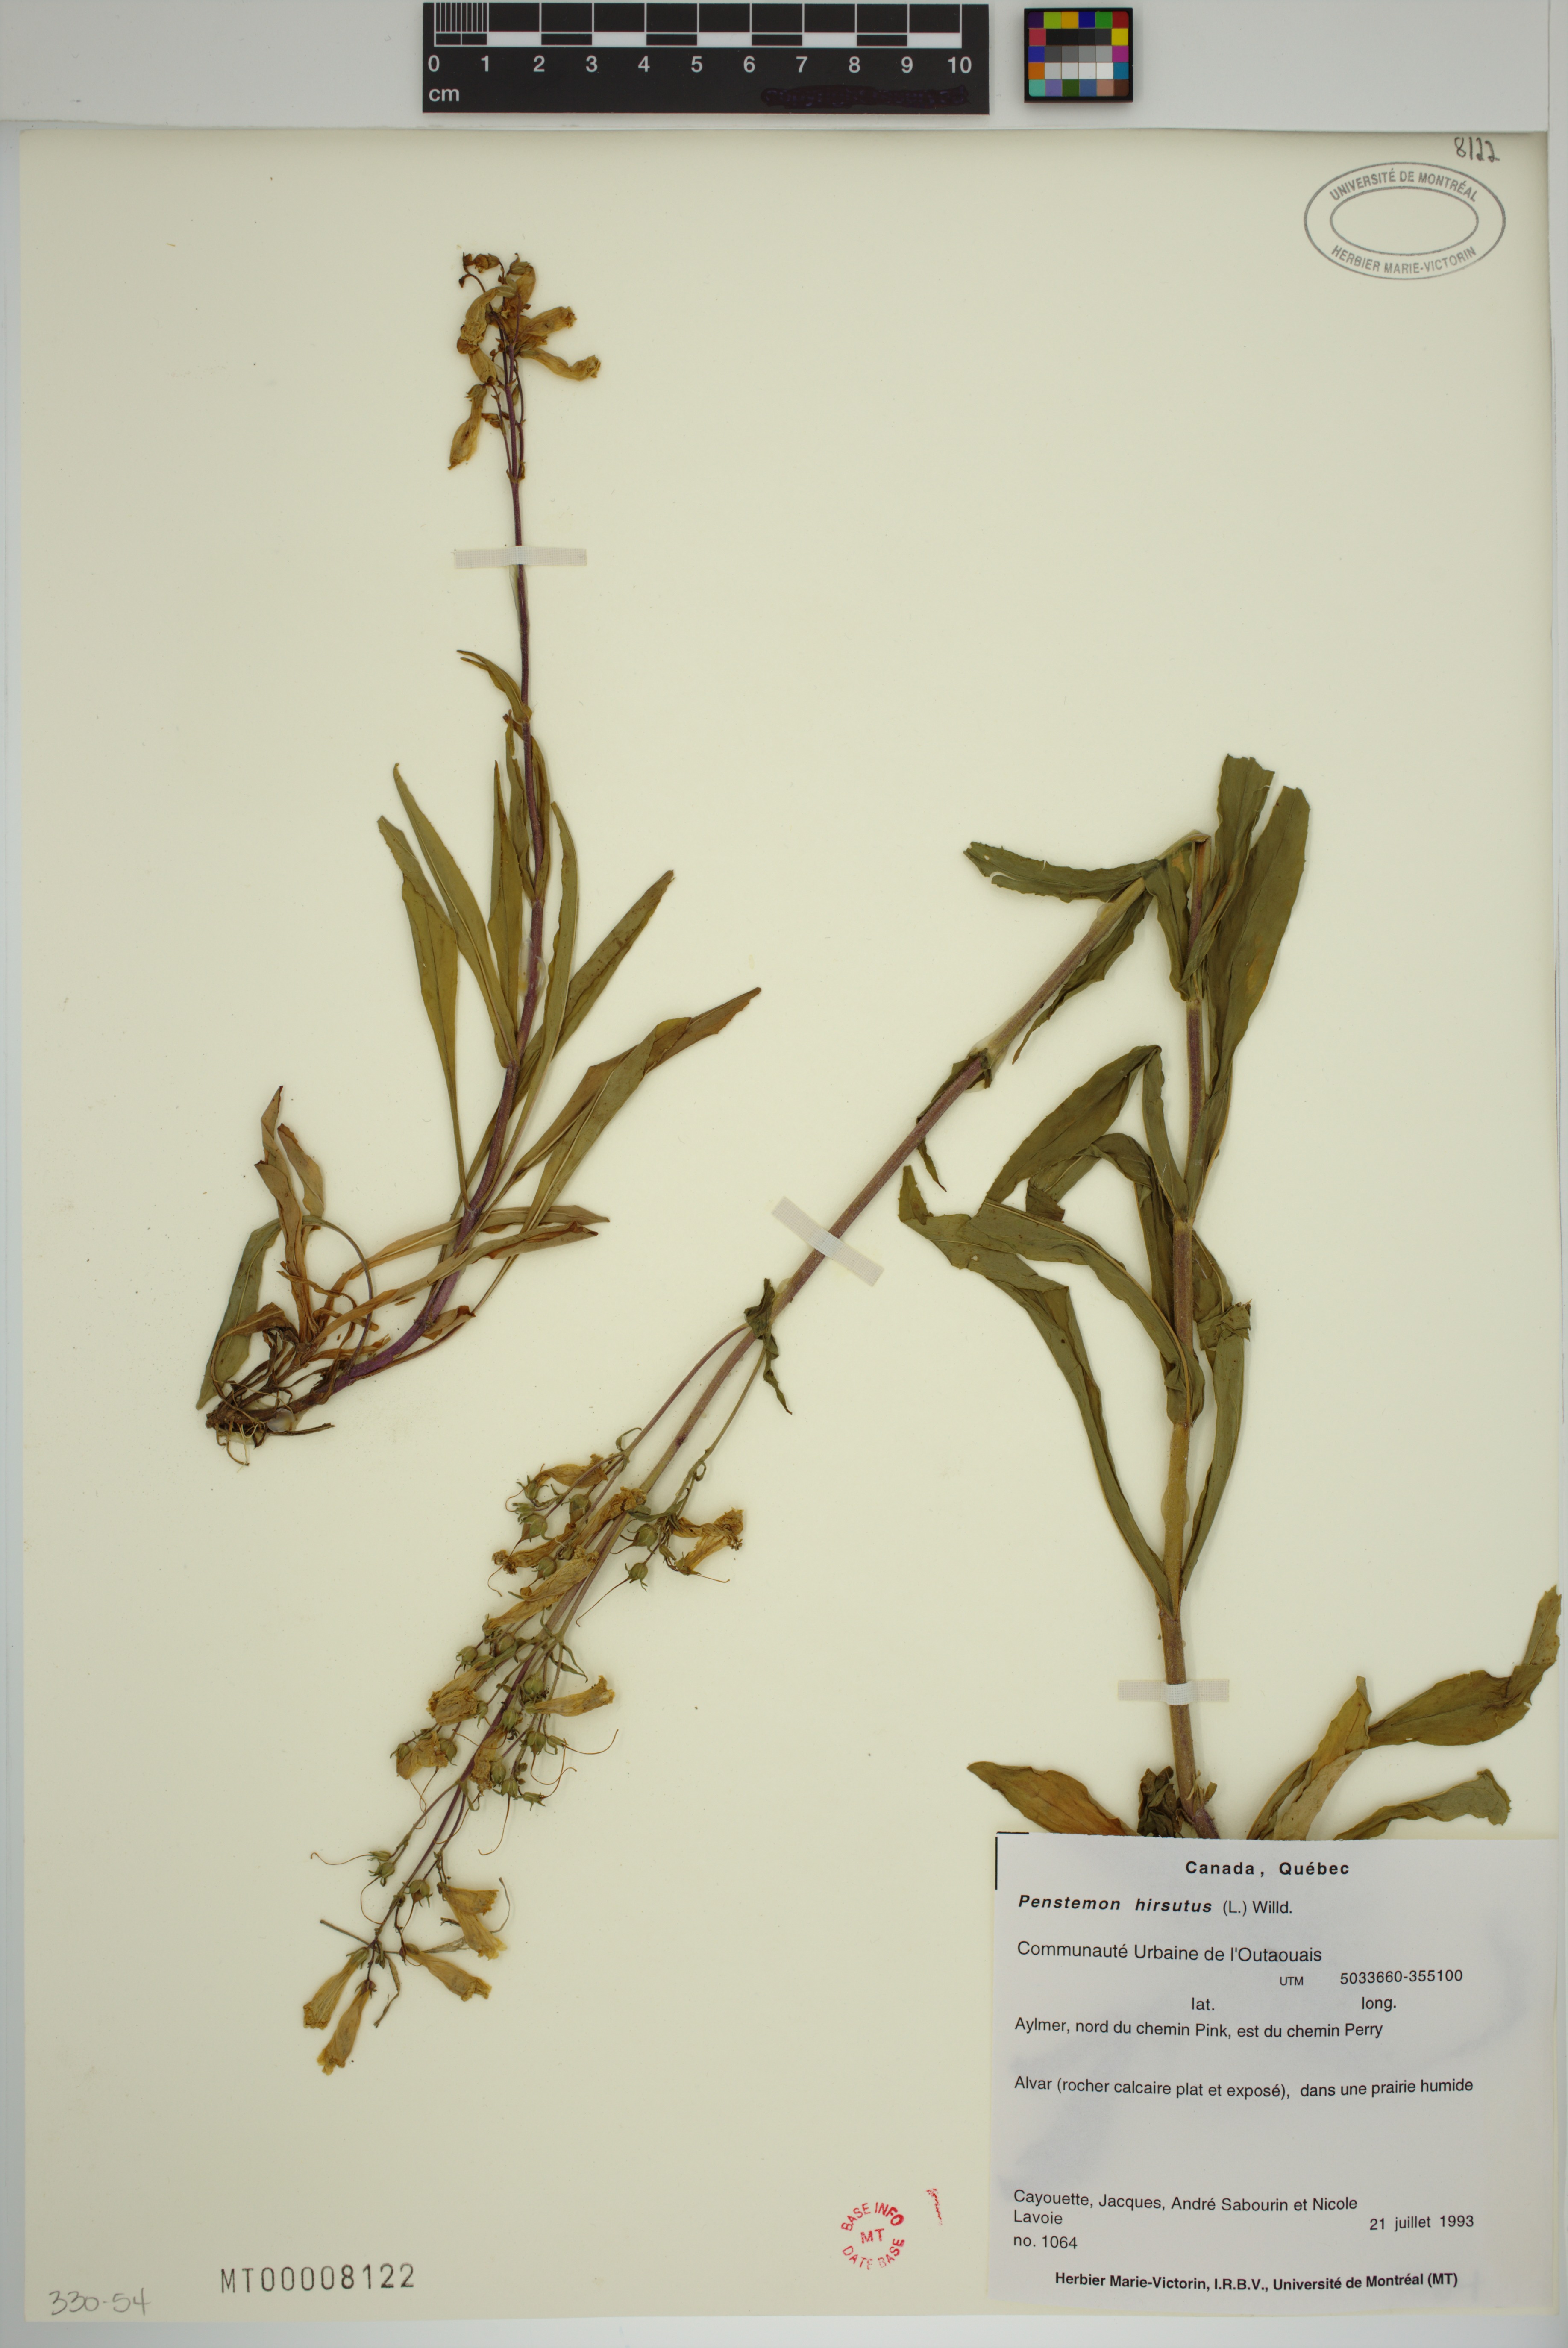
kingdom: Plantae
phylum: Tracheophyta
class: Magnoliopsida
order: Lamiales
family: Plantaginaceae
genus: Penstemon
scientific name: Penstemon hirsutus
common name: Hairy beardtongue
